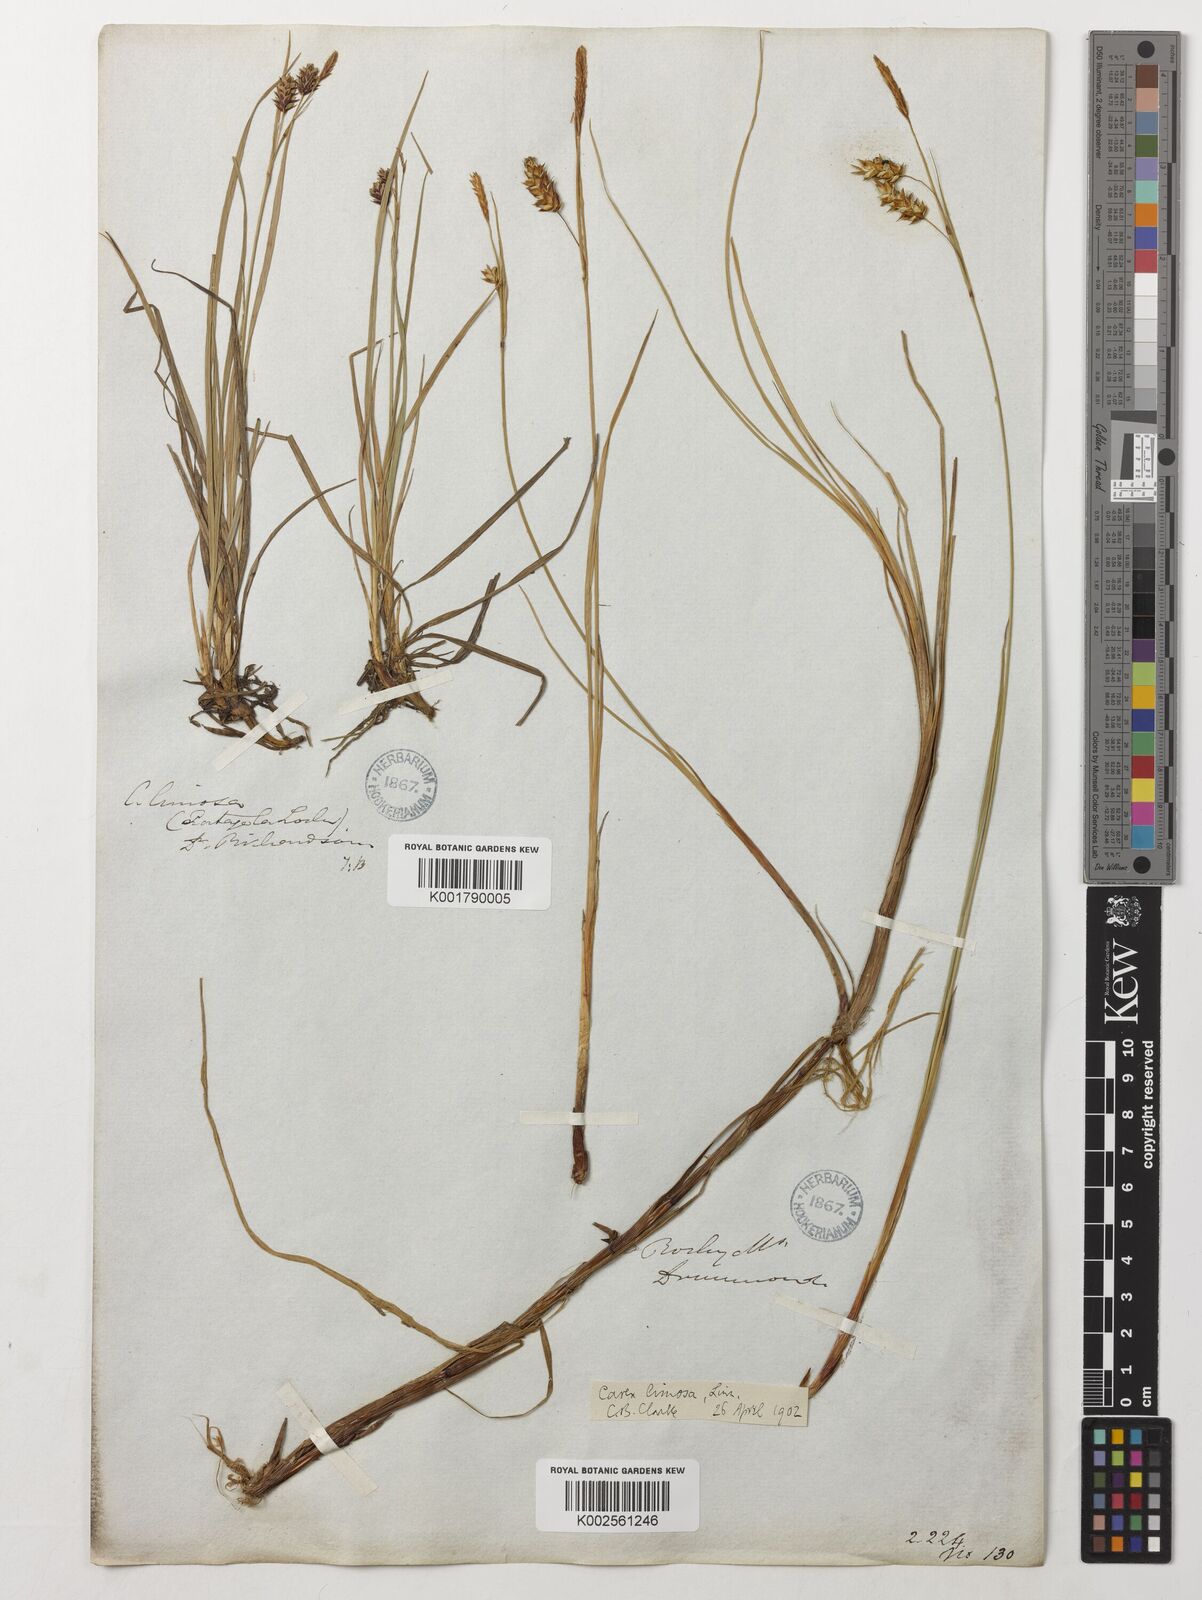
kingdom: Plantae
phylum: Tracheophyta
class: Liliopsida
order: Poales
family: Cyperaceae
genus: Carex
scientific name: Carex limosa
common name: Bog sedge
